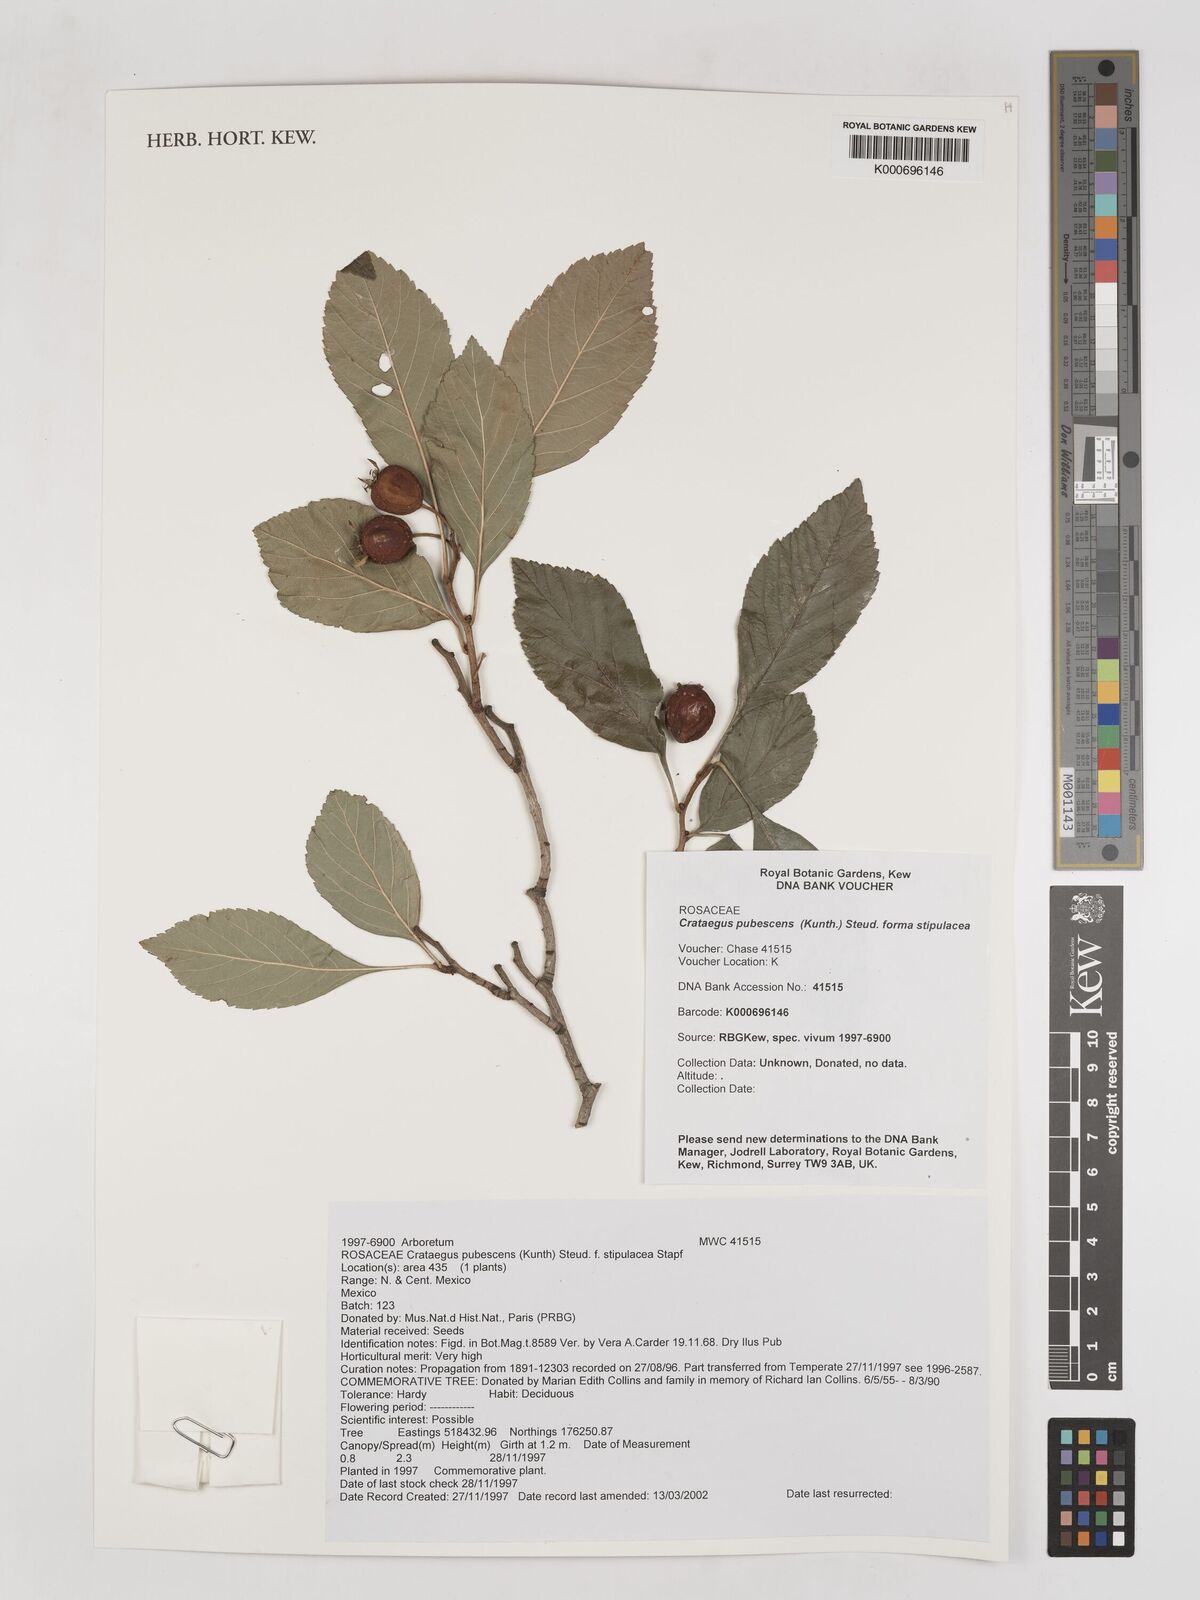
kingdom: Plantae
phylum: Tracheophyta
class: Magnoliopsida
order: Rosales
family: Rosaceae
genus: Crataegus
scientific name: Crataegus gracilior
